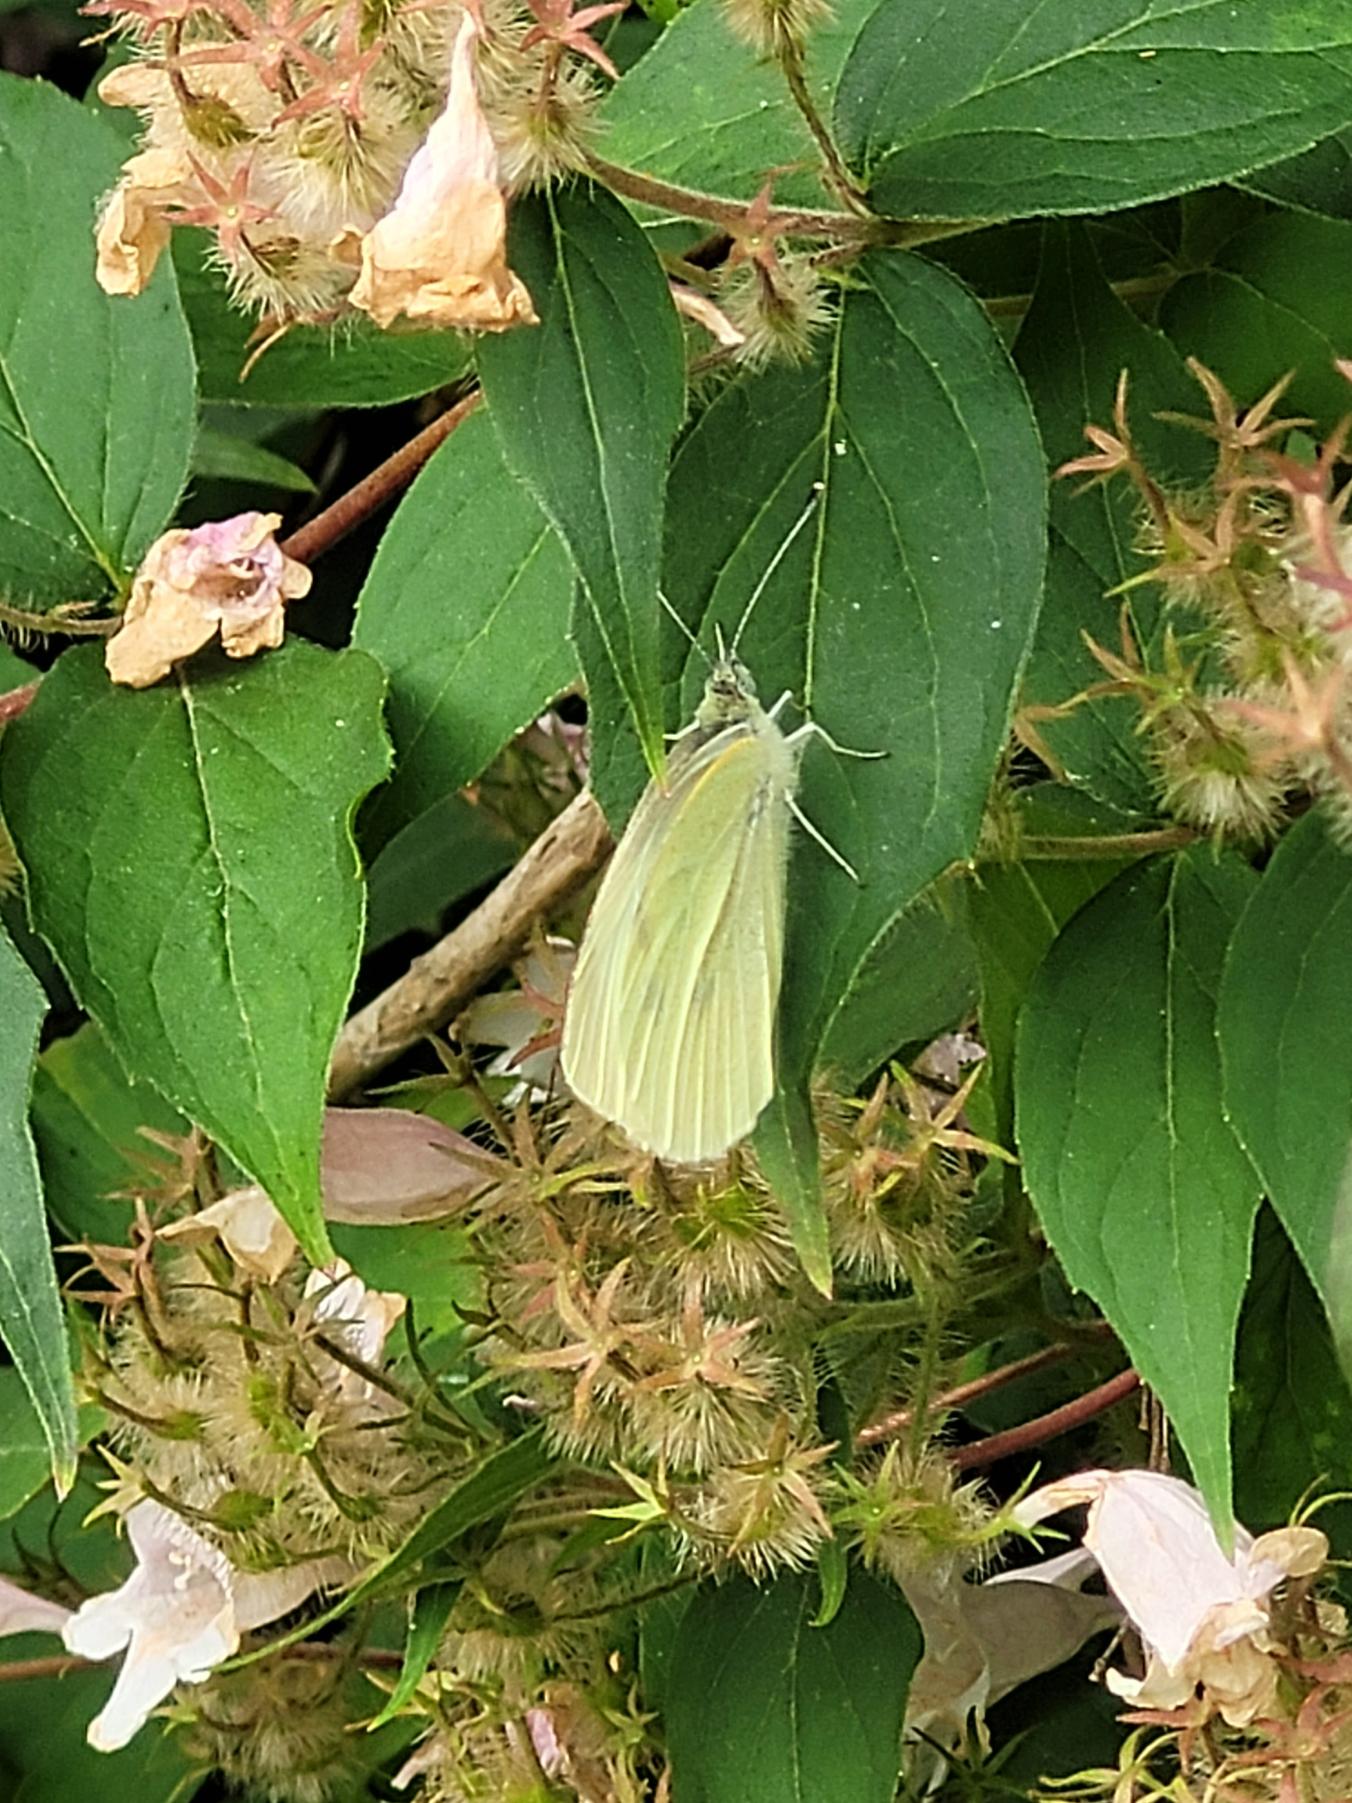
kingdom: Animalia
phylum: Arthropoda
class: Insecta
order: Lepidoptera
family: Pieridae
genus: Pieris
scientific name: Pieris brassicae
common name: Stor kålsommerfugl
